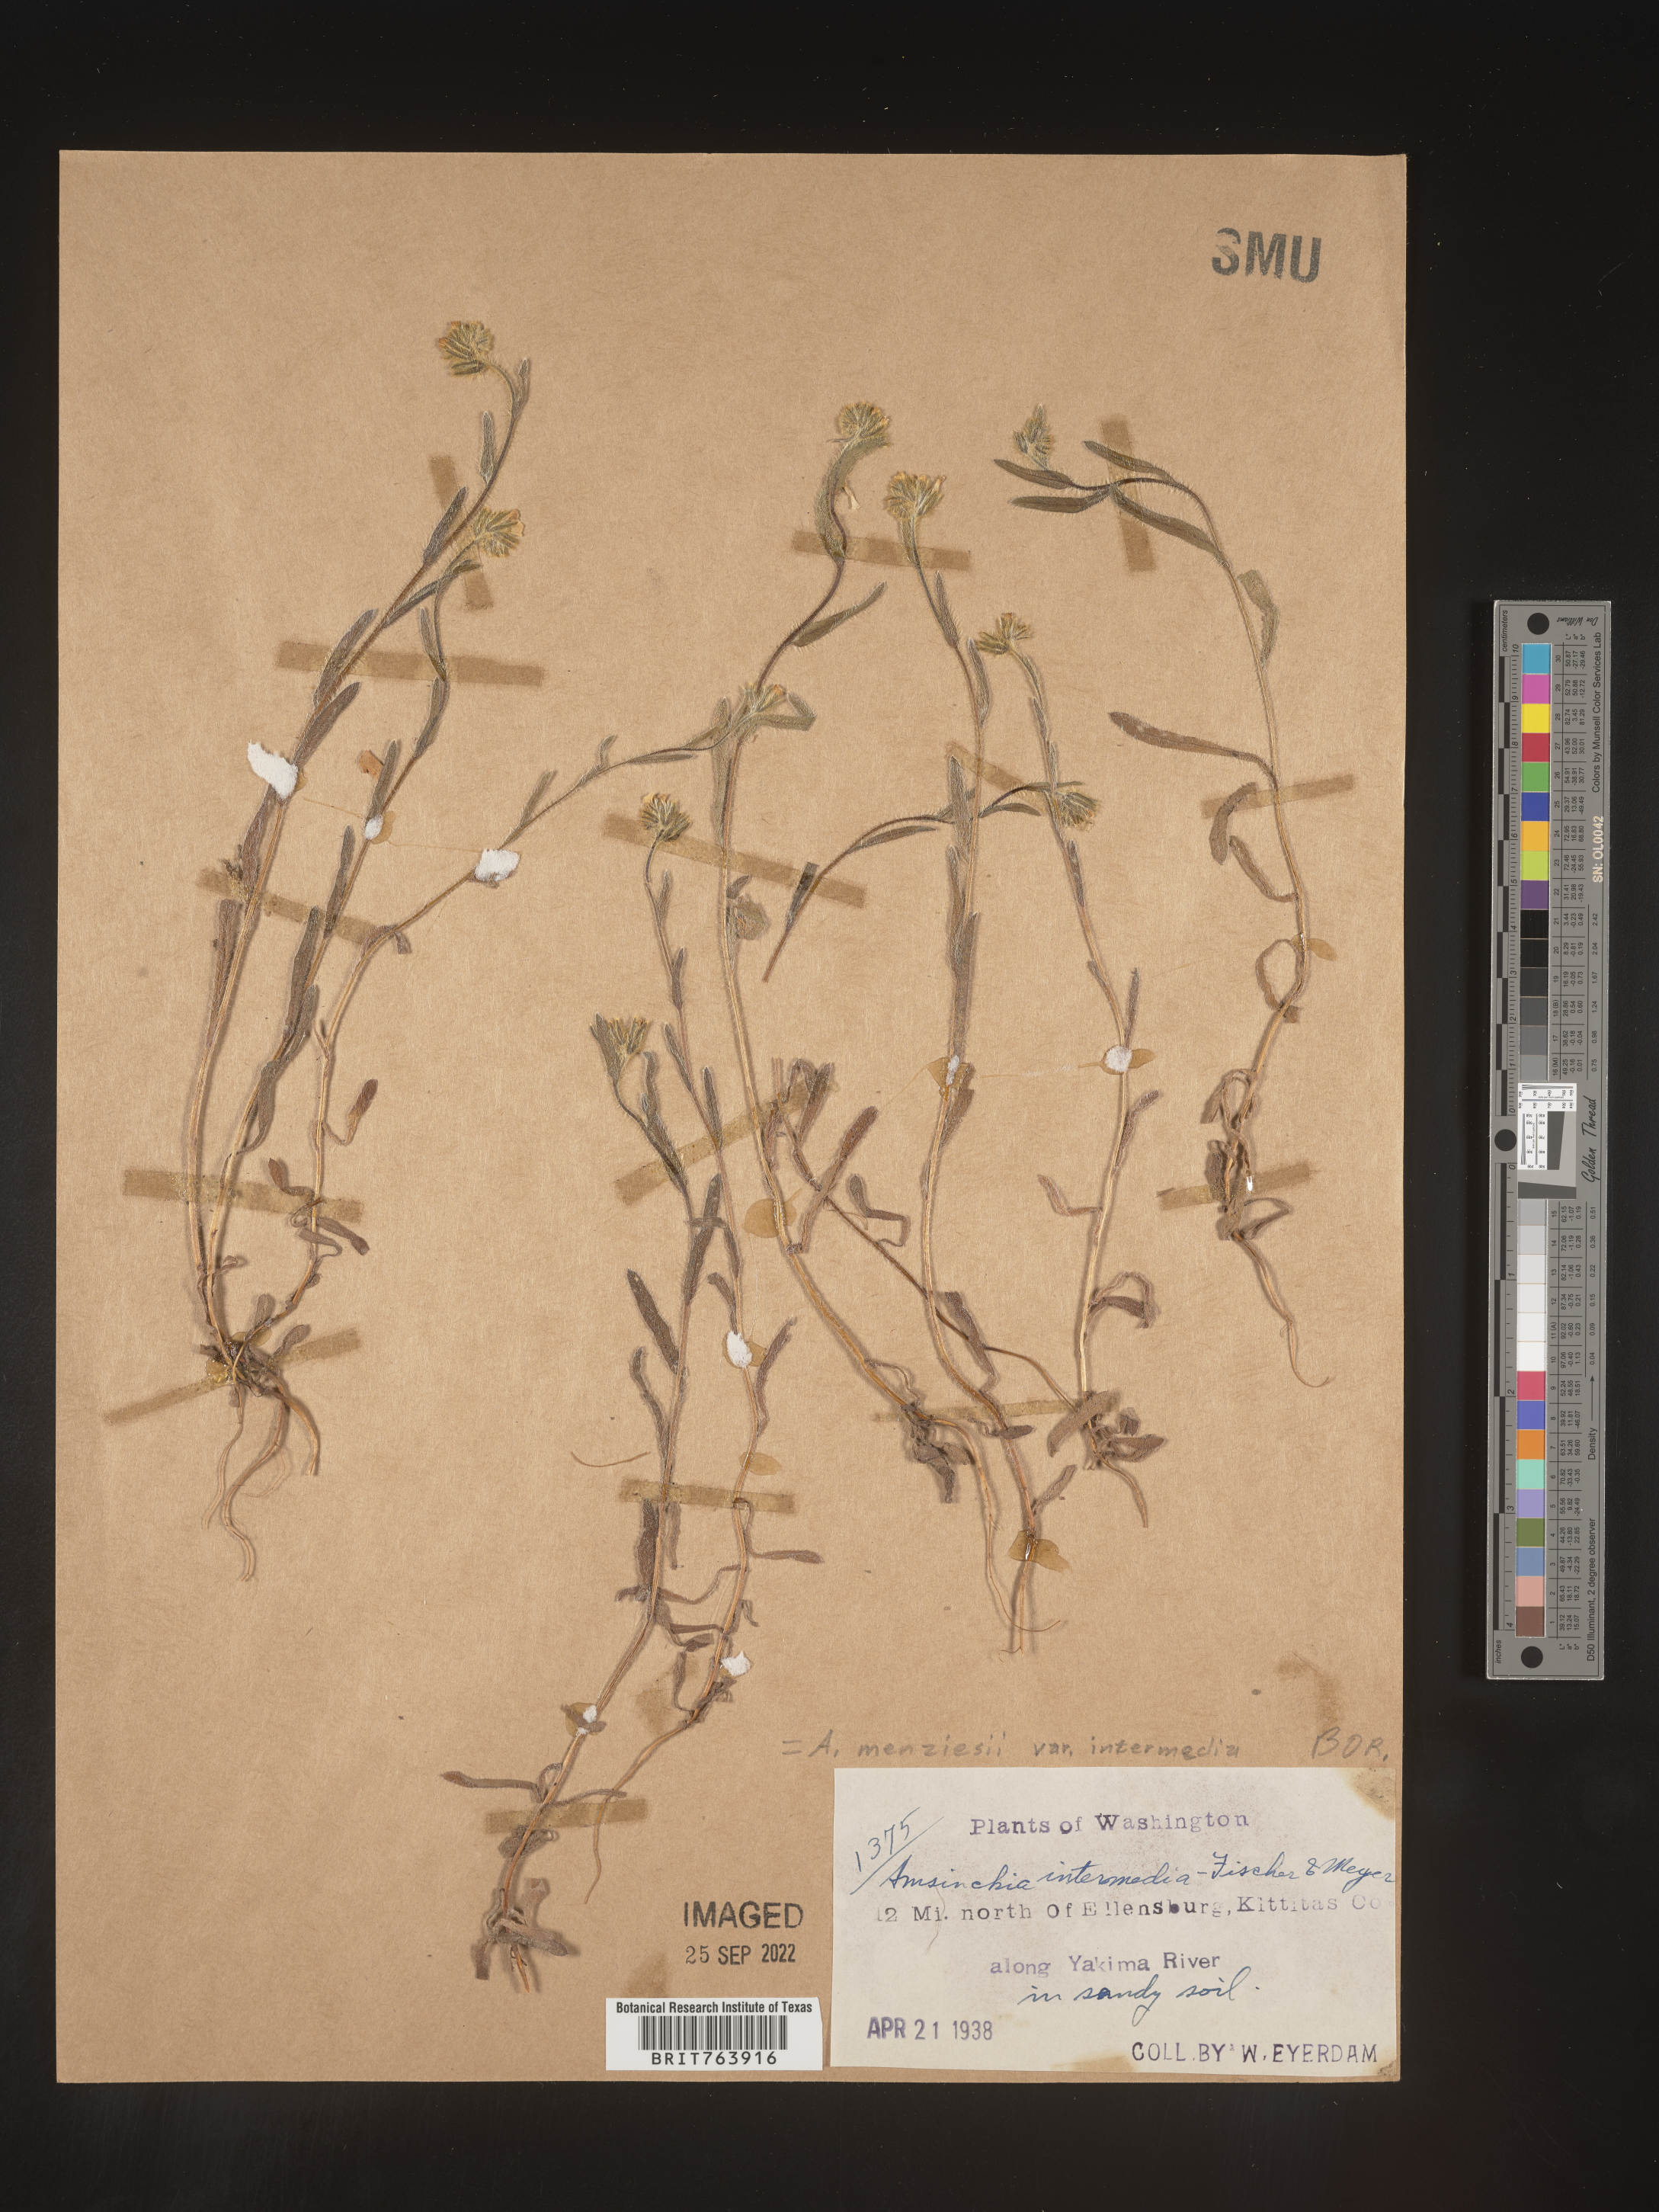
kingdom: Plantae
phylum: Tracheophyta
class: Magnoliopsida
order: Boraginales
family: Boraginaceae
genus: Amsinckia
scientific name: Amsinckia menziesii
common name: Menzies' fiddleneck
